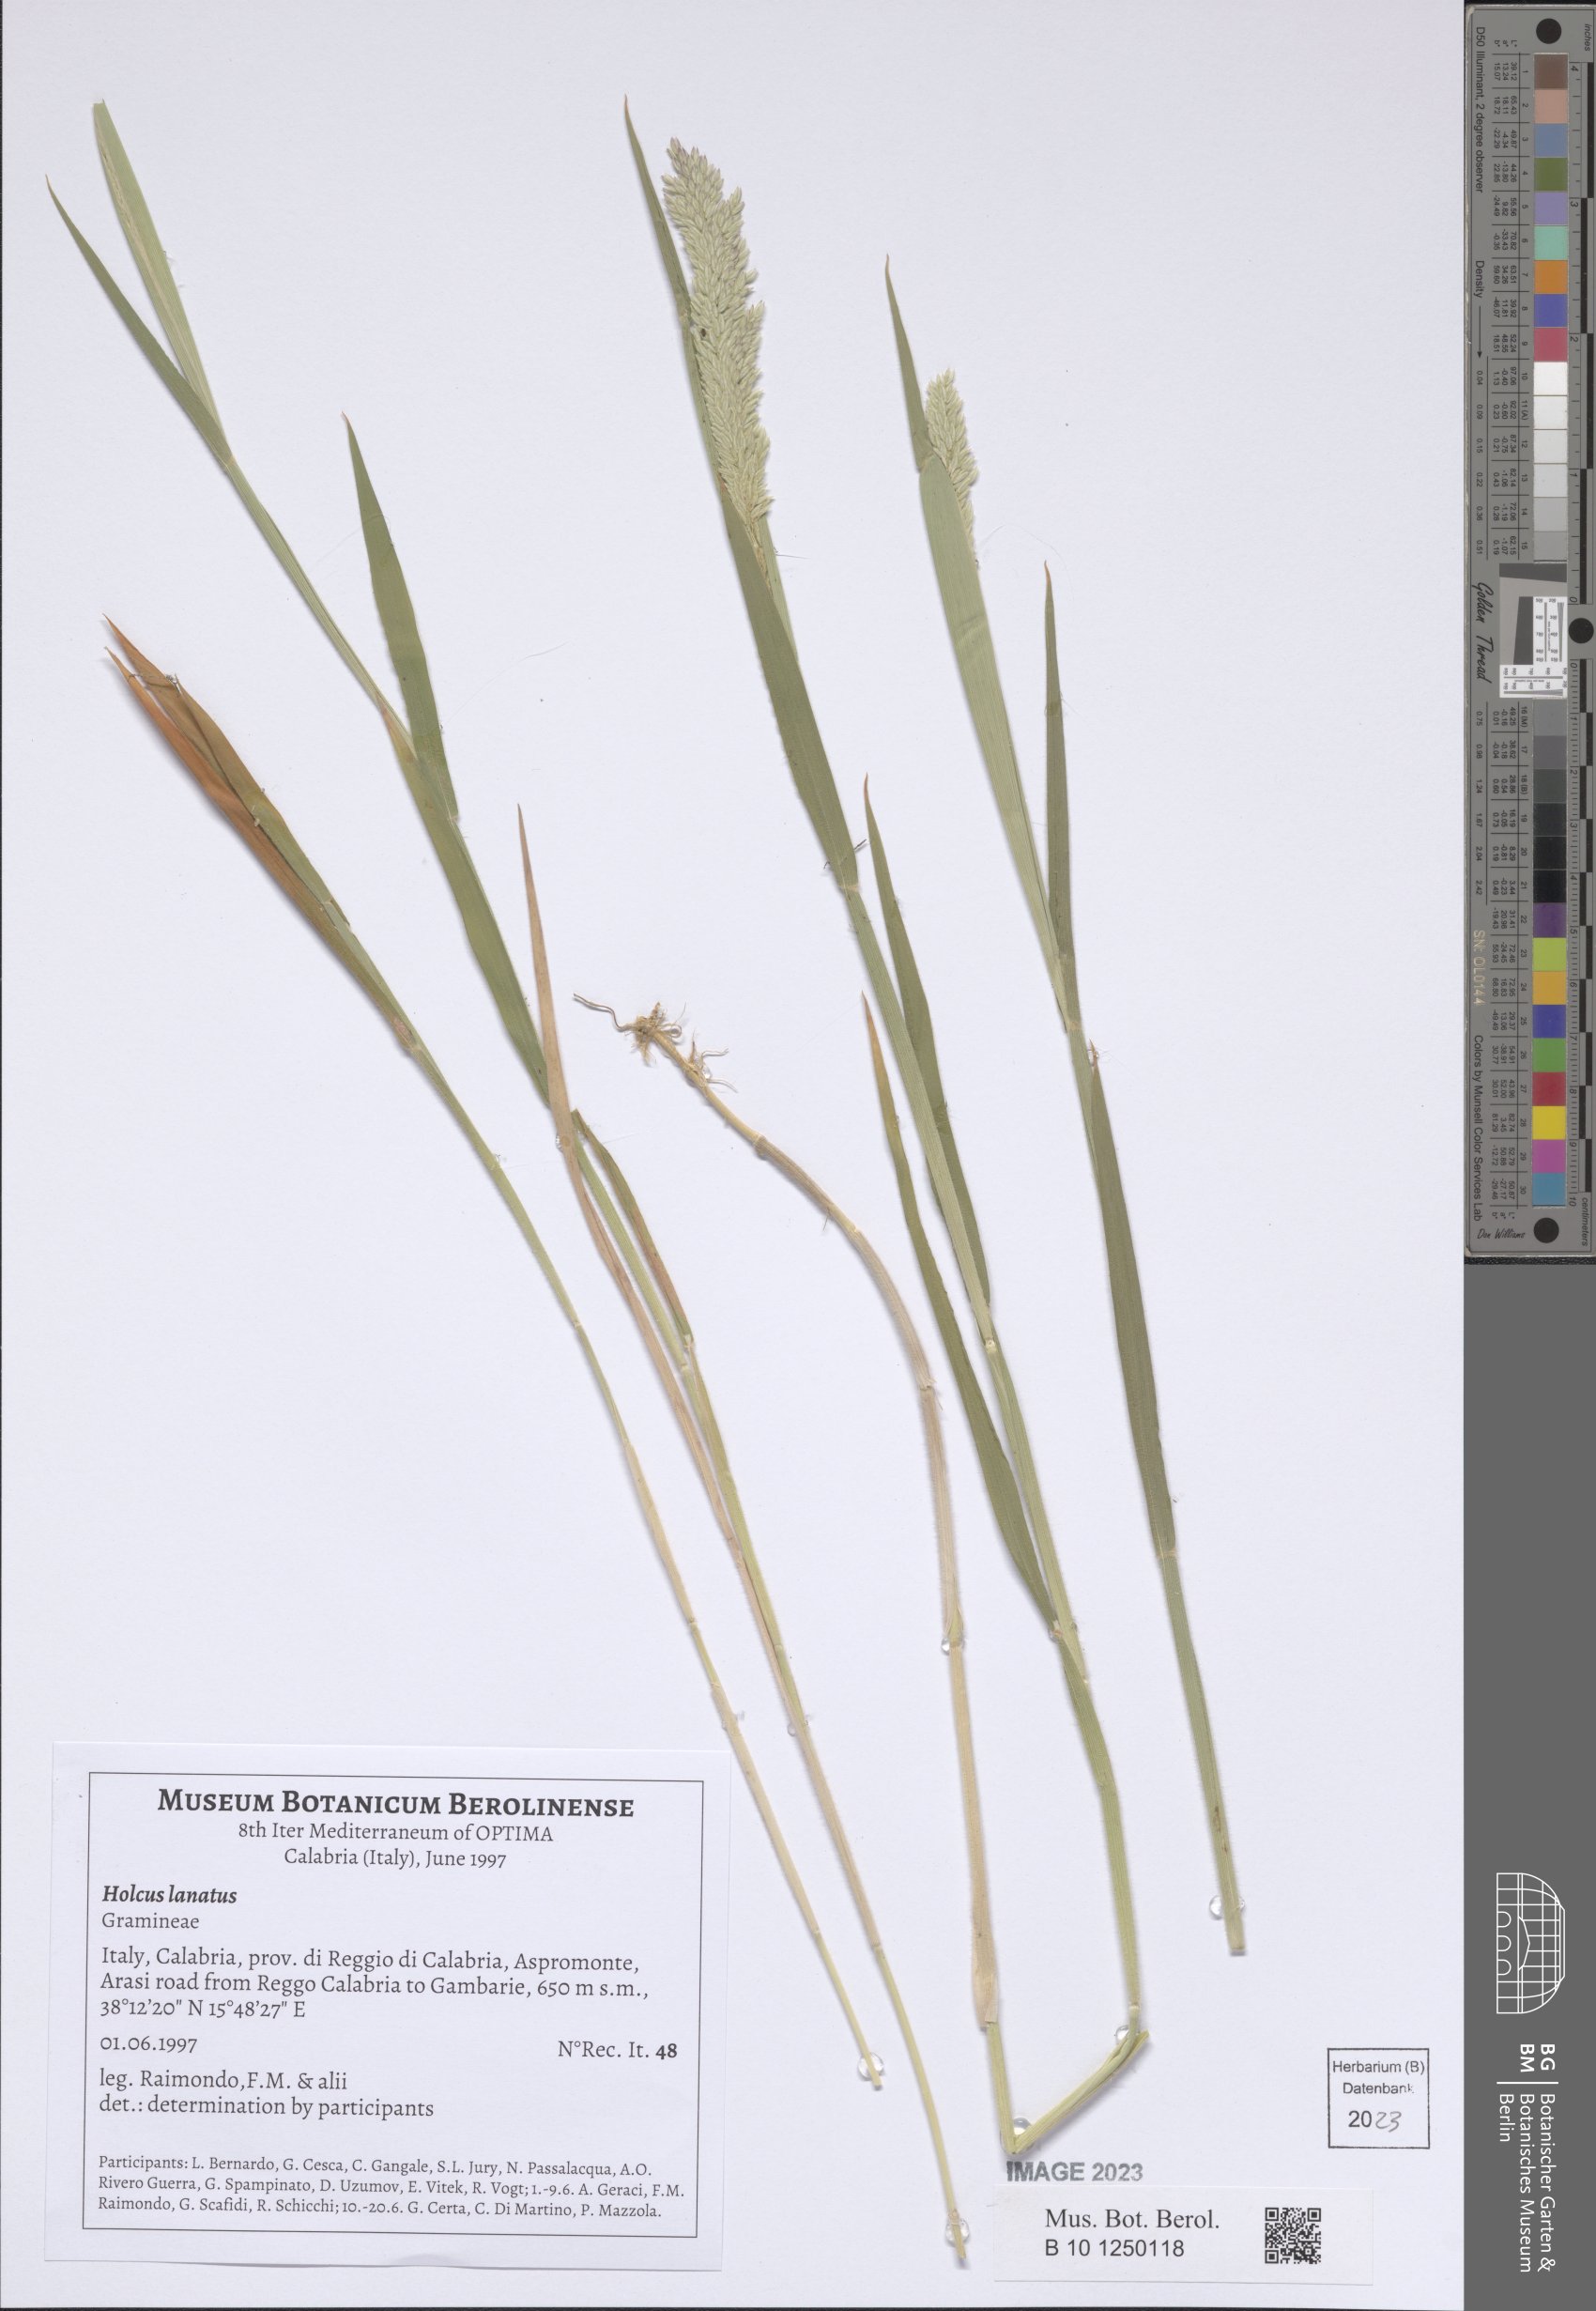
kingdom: Plantae
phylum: Tracheophyta
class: Liliopsida
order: Poales
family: Poaceae
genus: Holcus
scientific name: Holcus lanatus
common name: Yorkshire-fog
